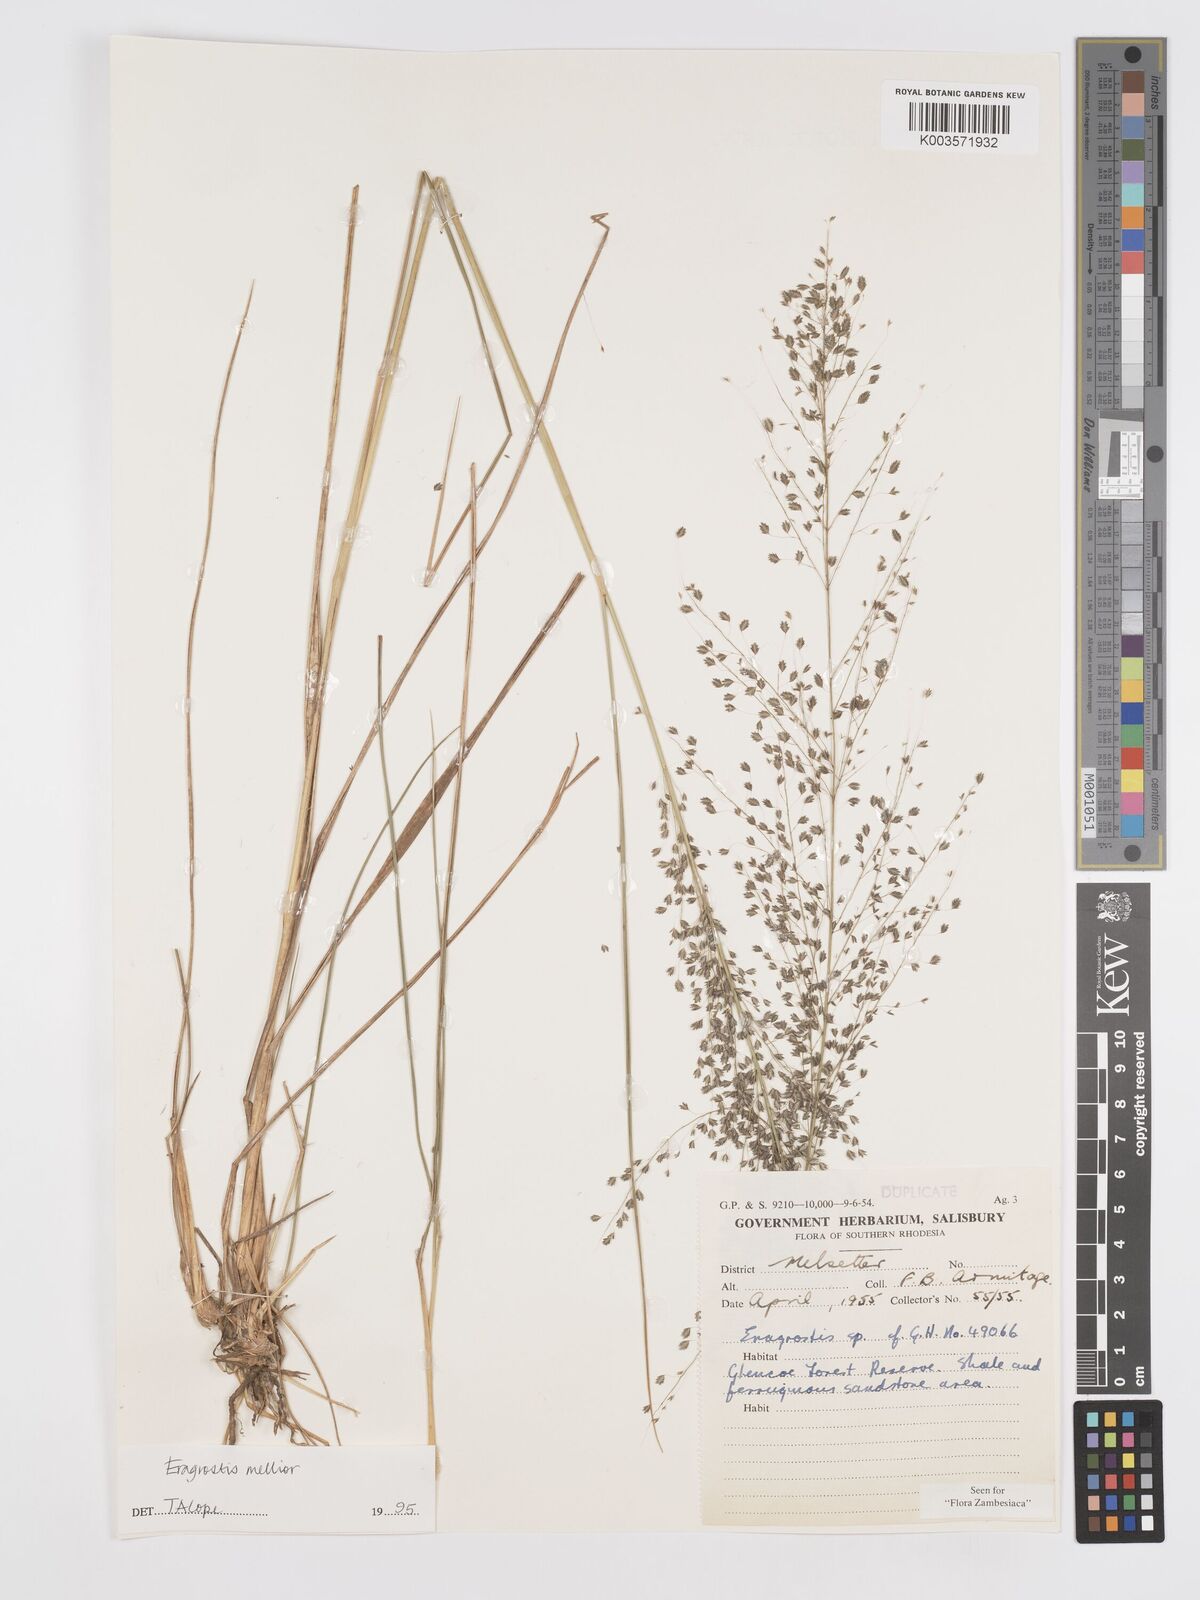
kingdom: Plantae
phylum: Tracheophyta
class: Liliopsida
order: Poales
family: Poaceae
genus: Eragrostis
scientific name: Eragrostis mollior
